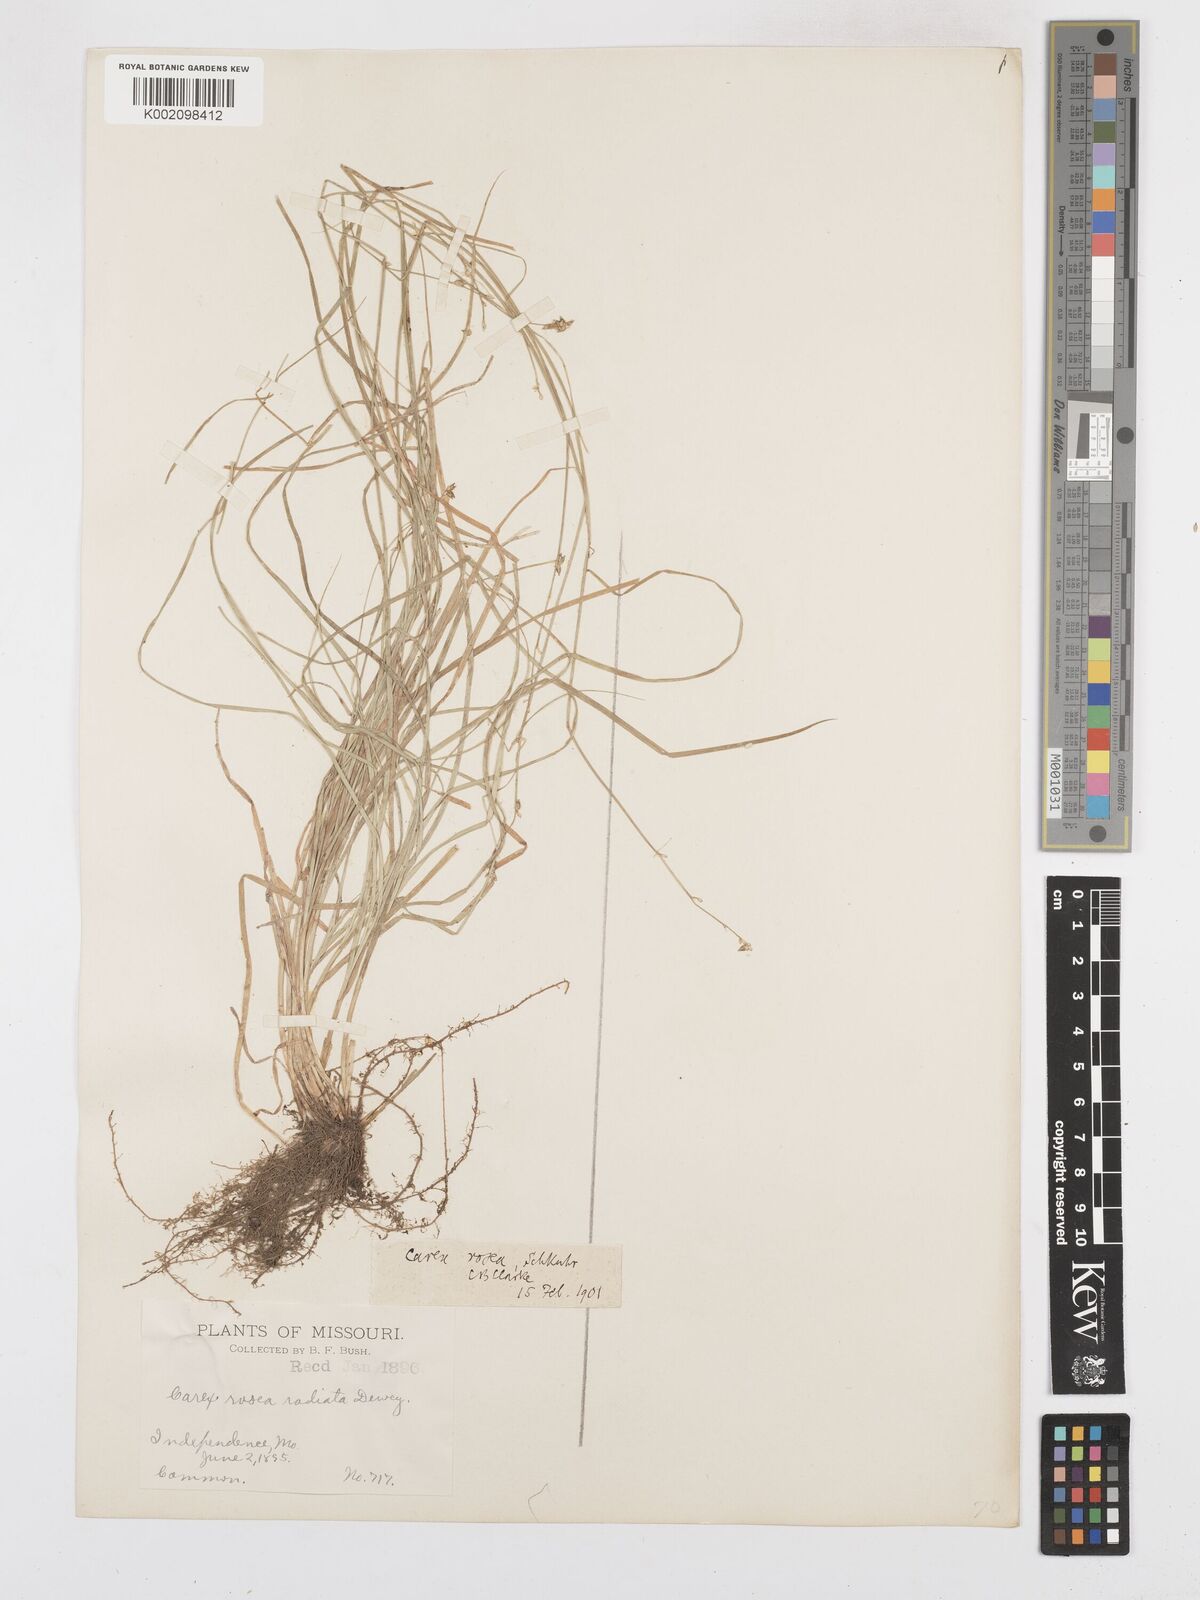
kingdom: Plantae
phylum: Tracheophyta
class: Liliopsida
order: Poales
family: Cyperaceae
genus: Carex
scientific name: Carex
